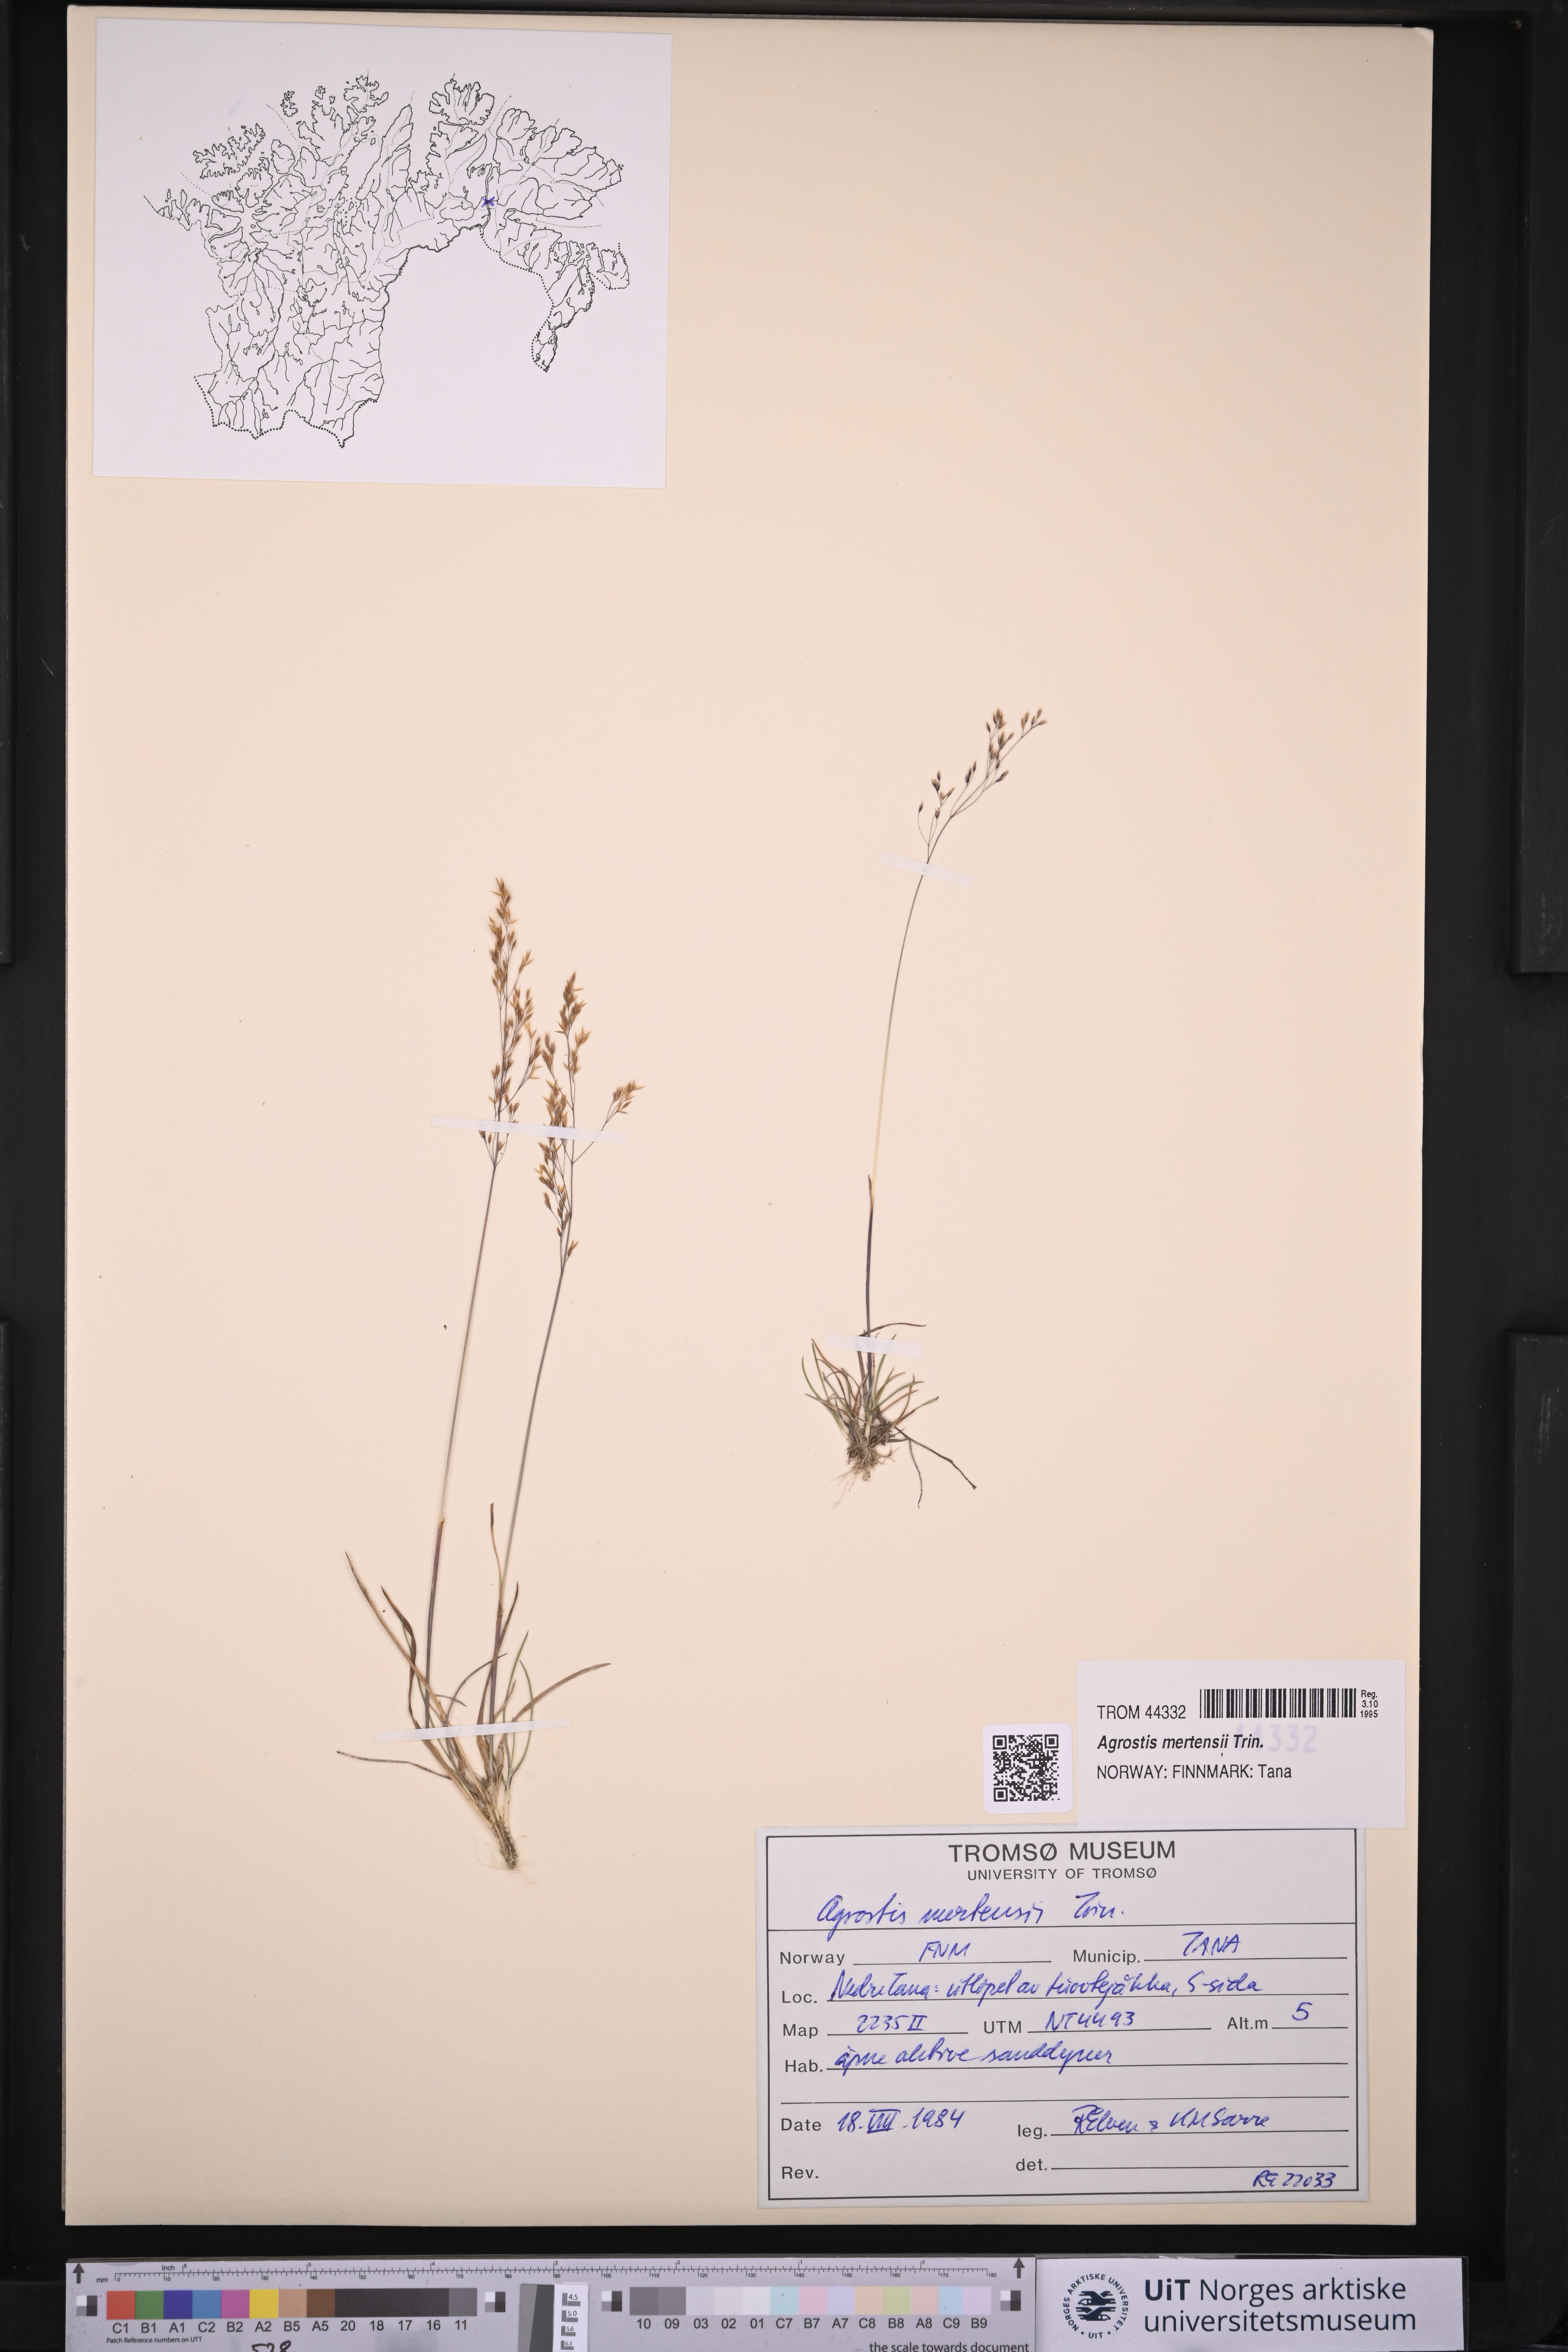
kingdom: Plantae
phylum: Tracheophyta
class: Liliopsida
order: Poales
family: Poaceae
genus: Agrostis
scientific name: Agrostis mertensii
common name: Northern bent
